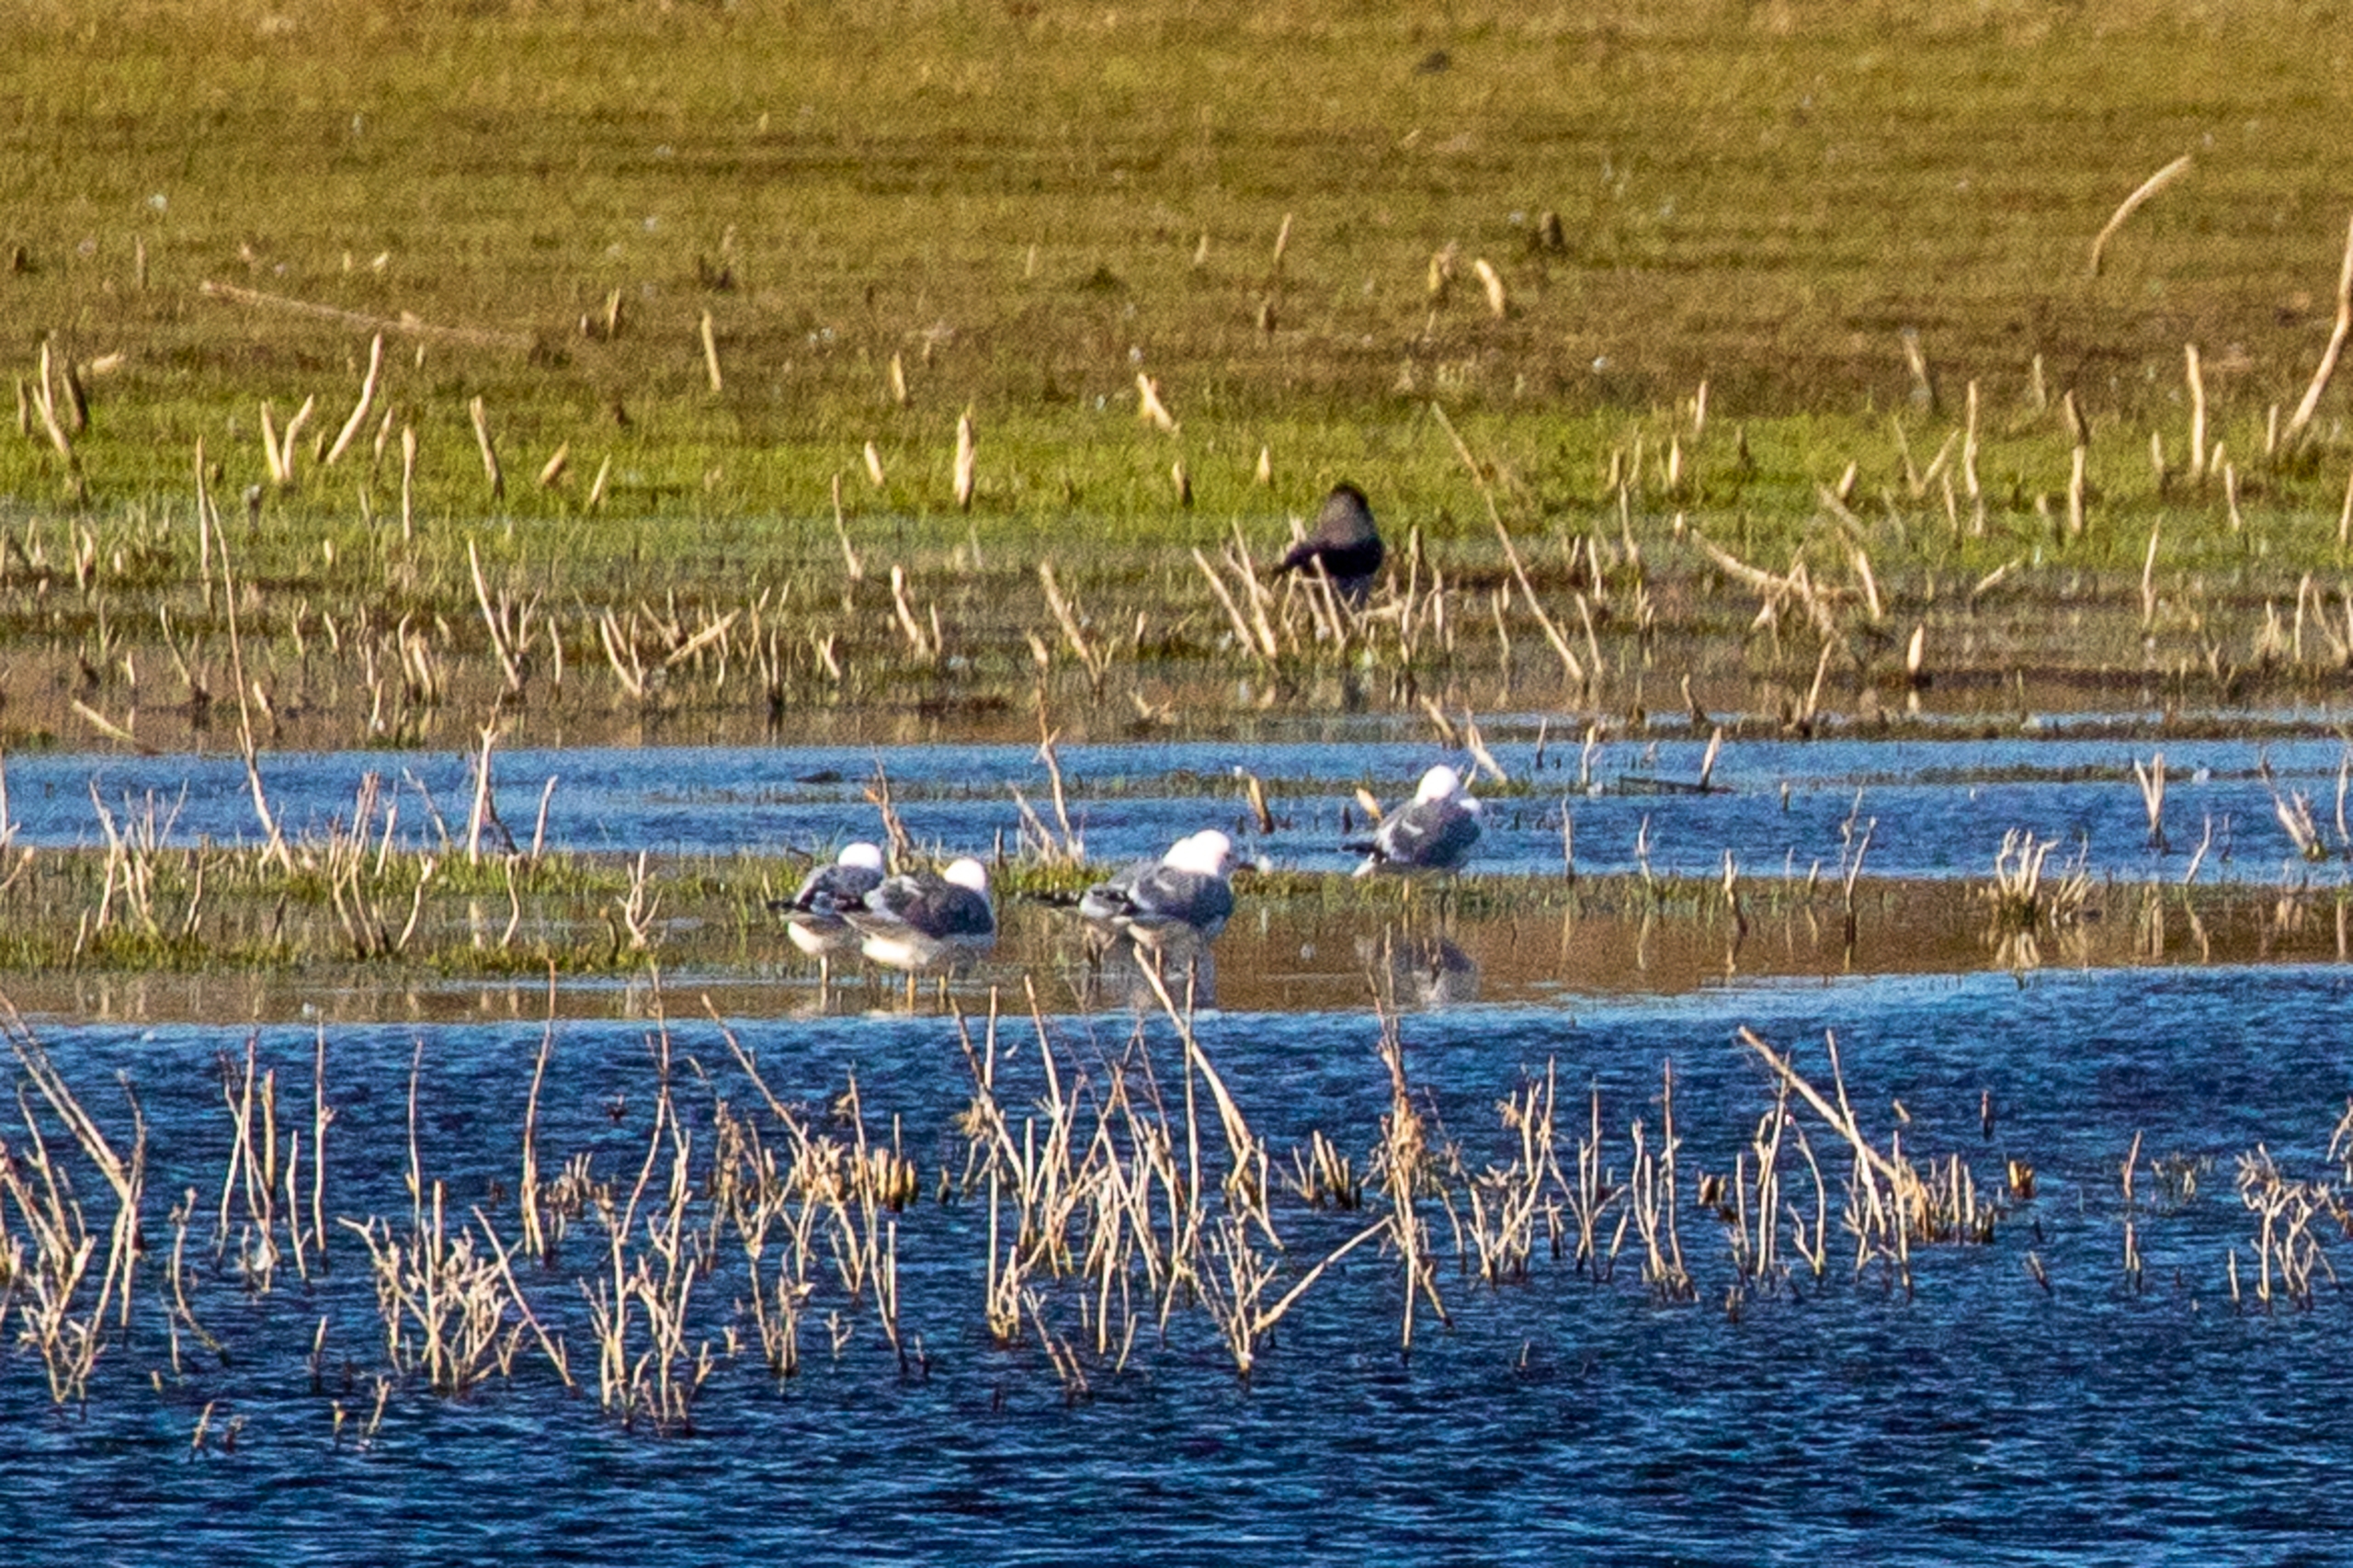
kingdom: Animalia
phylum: Chordata
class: Aves
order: Charadriiformes
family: Laridae
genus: Larus
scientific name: Larus canus
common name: Stormmåge
